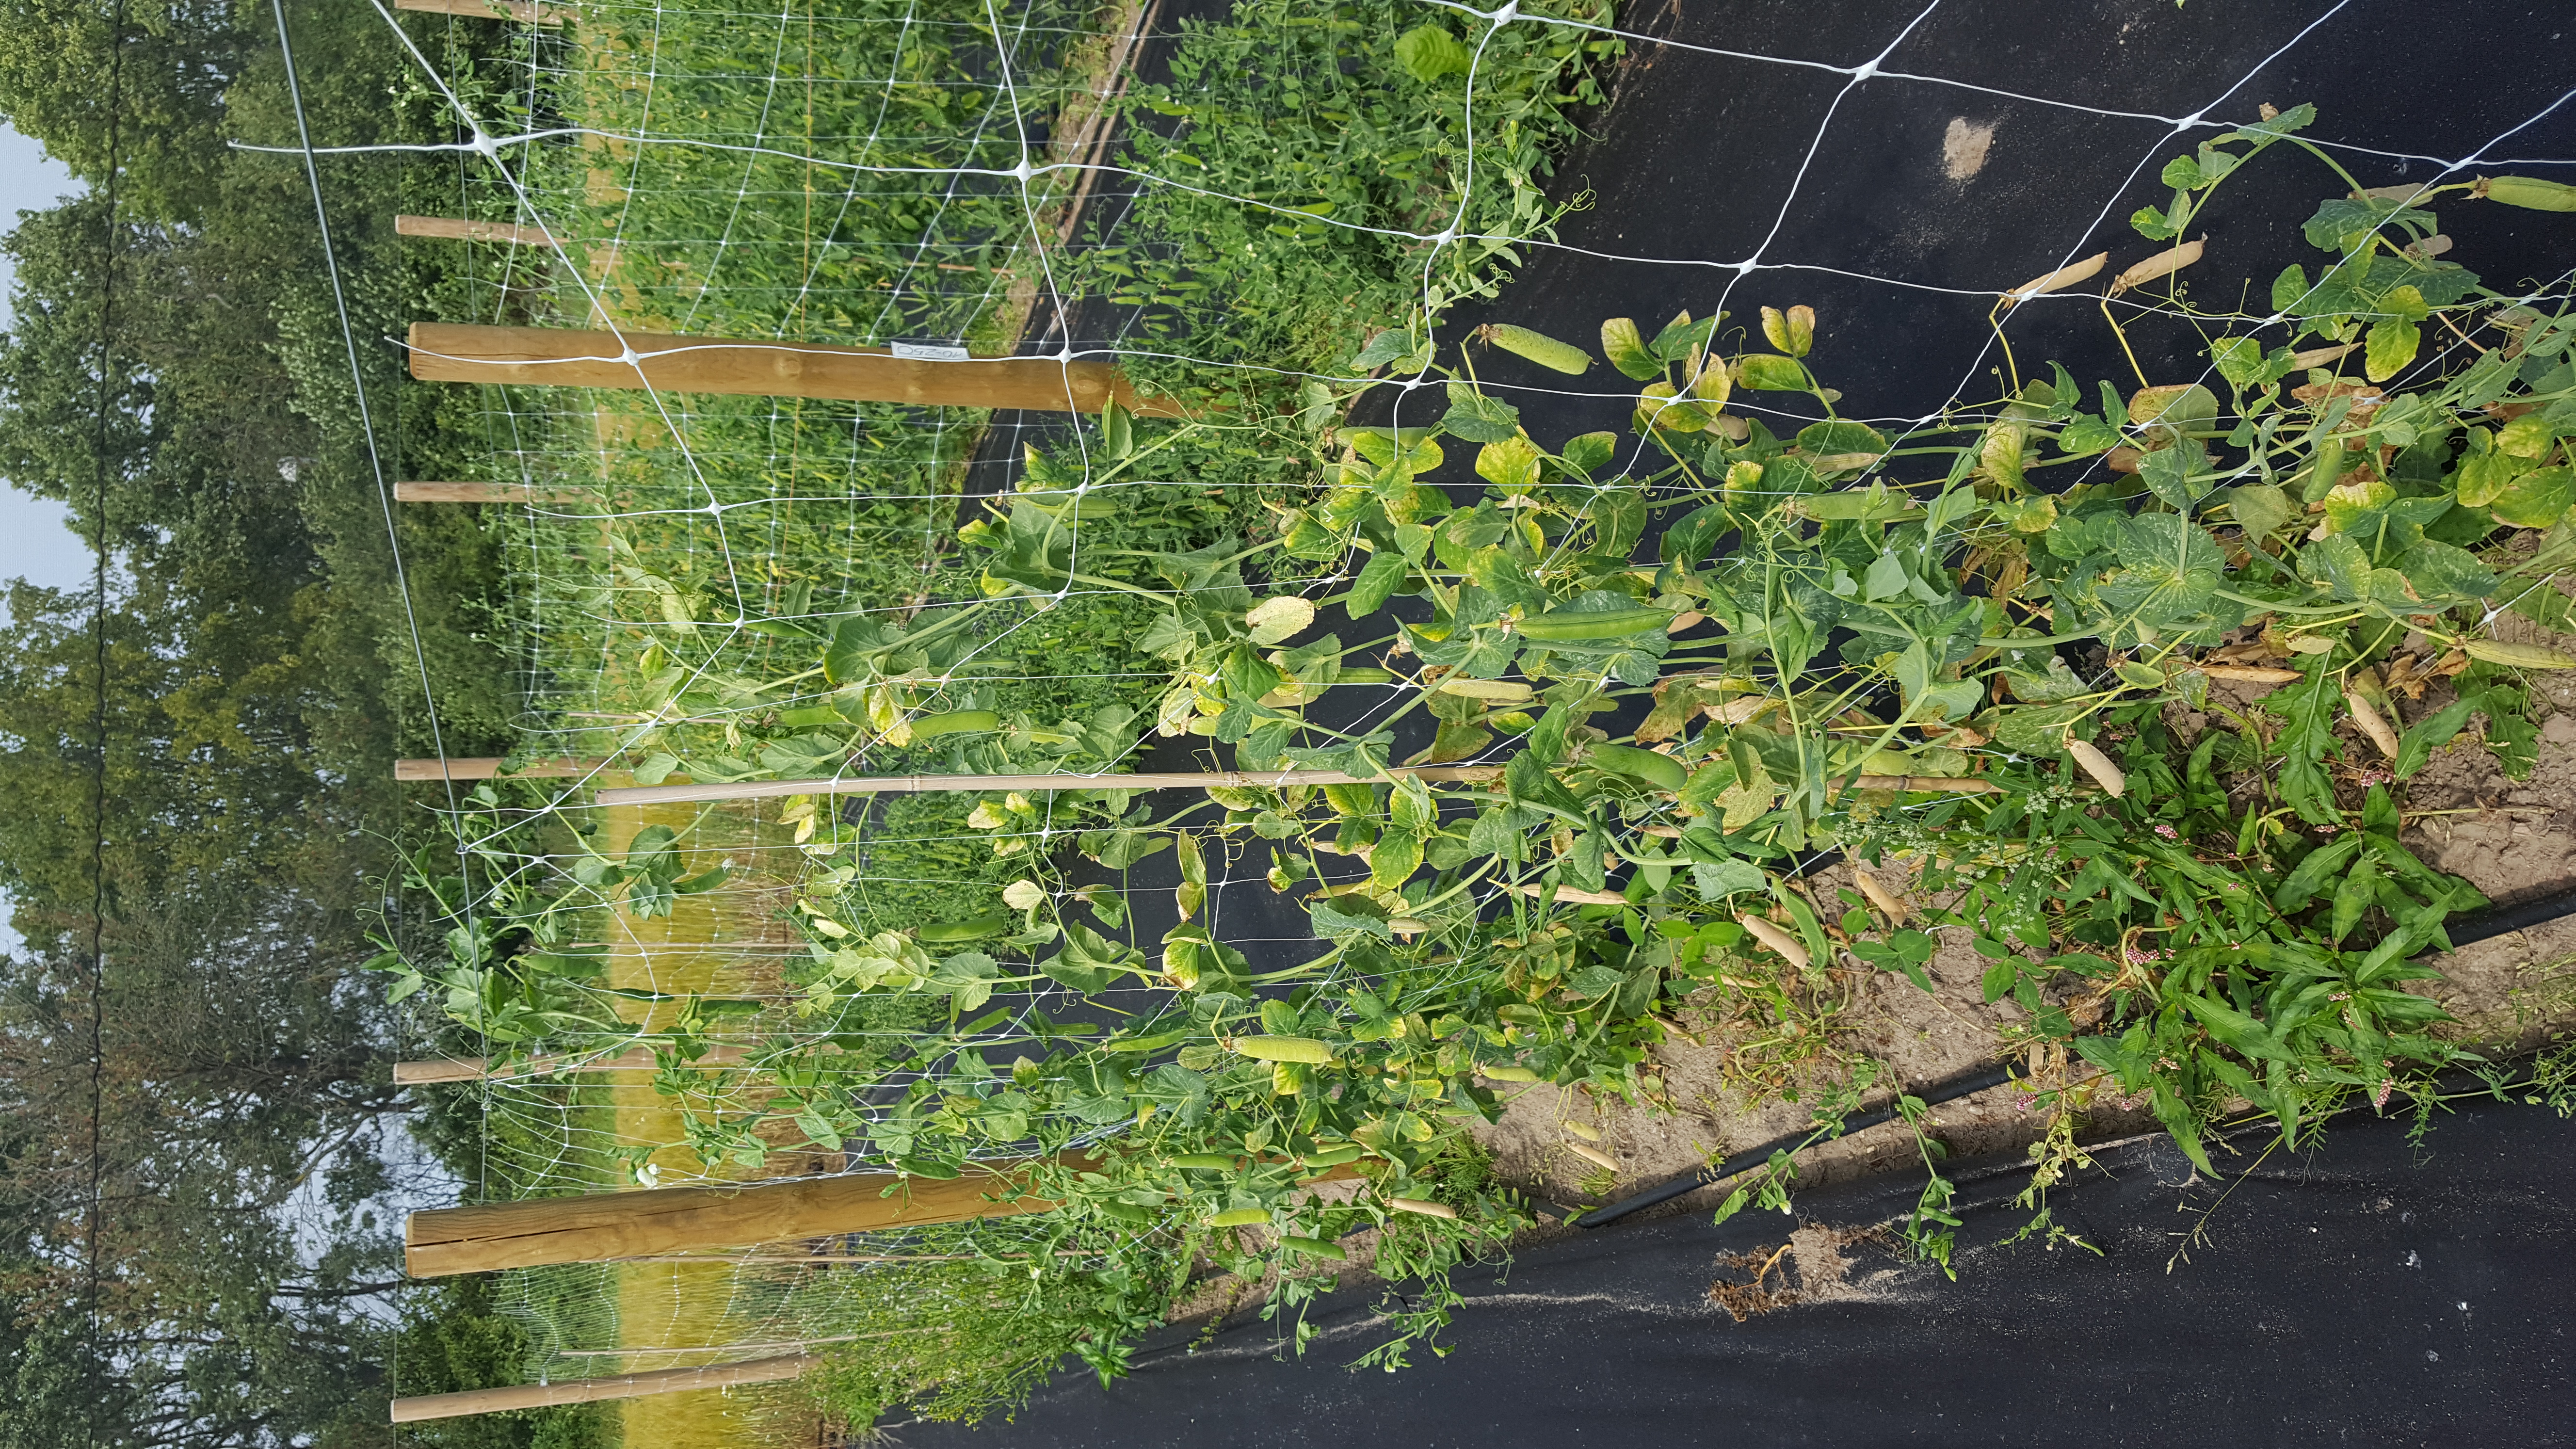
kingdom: Plantae
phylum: Tracheophyta
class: Magnoliopsida
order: Fabales
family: Fabaceae
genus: Lathyrus
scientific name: Lathyrus oleraceus
